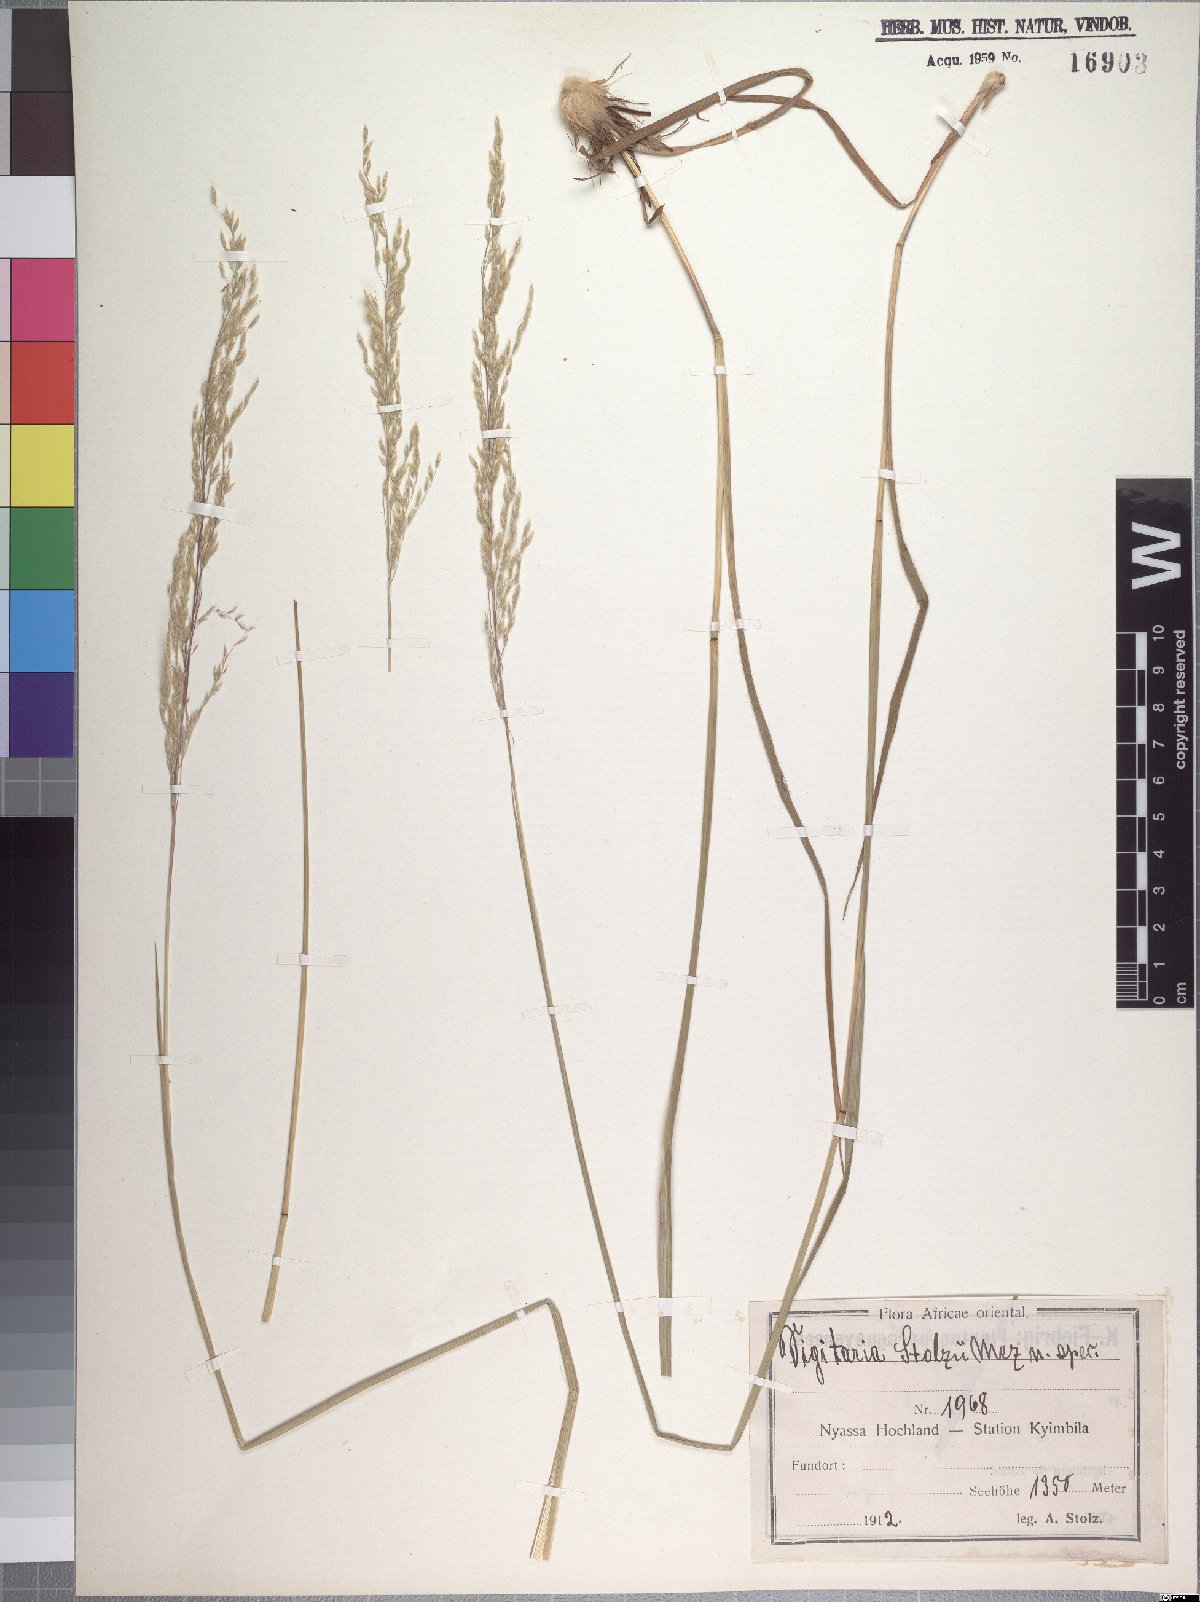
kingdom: Plantae
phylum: Tracheophyta
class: Liliopsida
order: Poales
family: Poaceae
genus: Digitaria
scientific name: Digitaria flaccida
